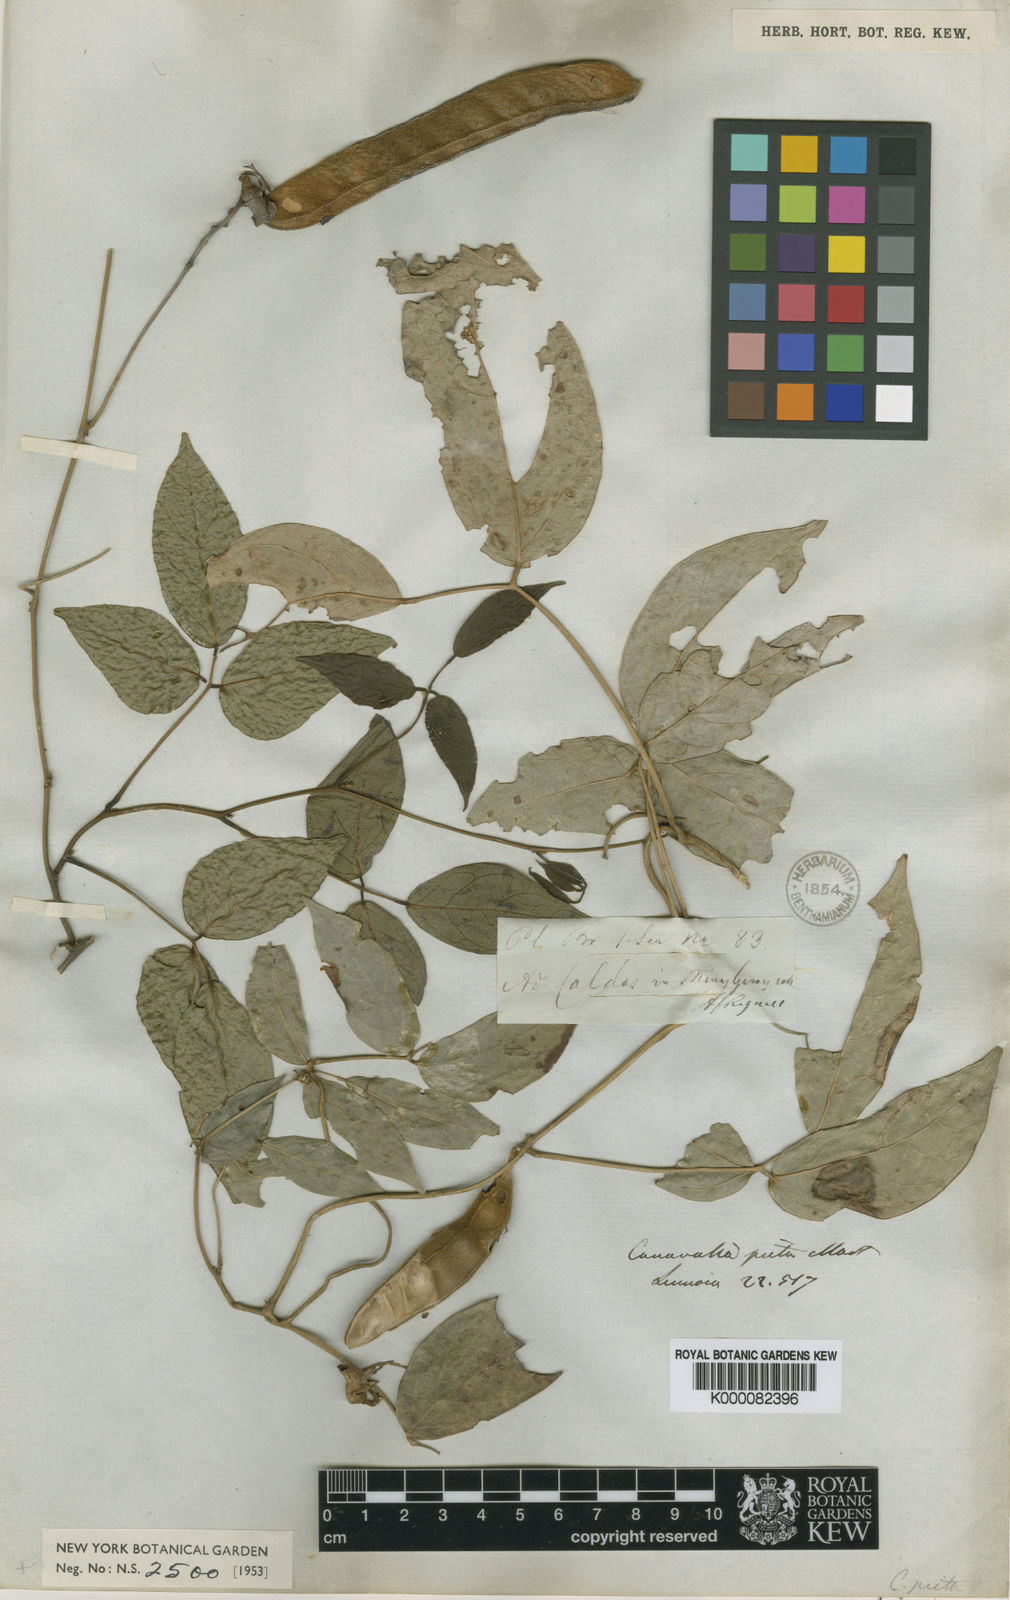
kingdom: Plantae
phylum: Tracheophyta
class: Magnoliopsida
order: Fabales
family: Fabaceae
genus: Canavalia
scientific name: Canavalia
